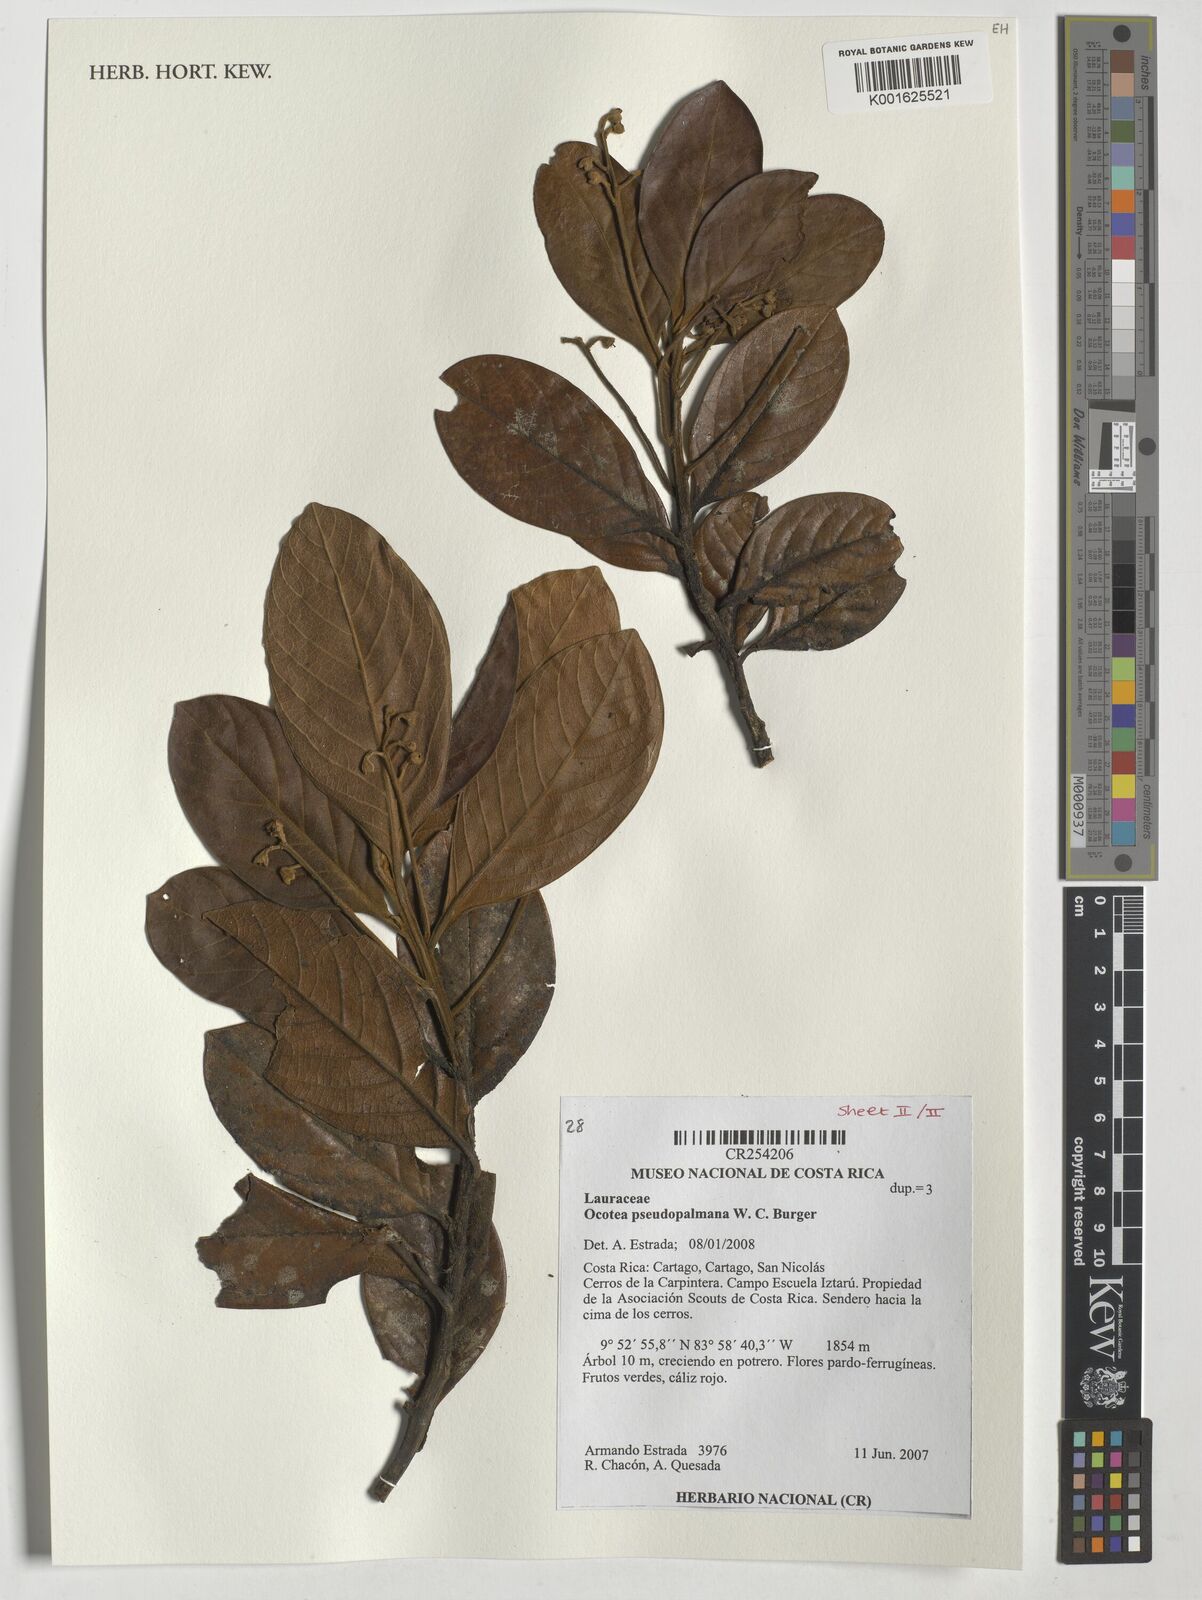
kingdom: Plantae
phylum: Tracheophyta
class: Magnoliopsida
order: Laurales
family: Lauraceae
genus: Ocotea
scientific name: Ocotea pseudopalmana
